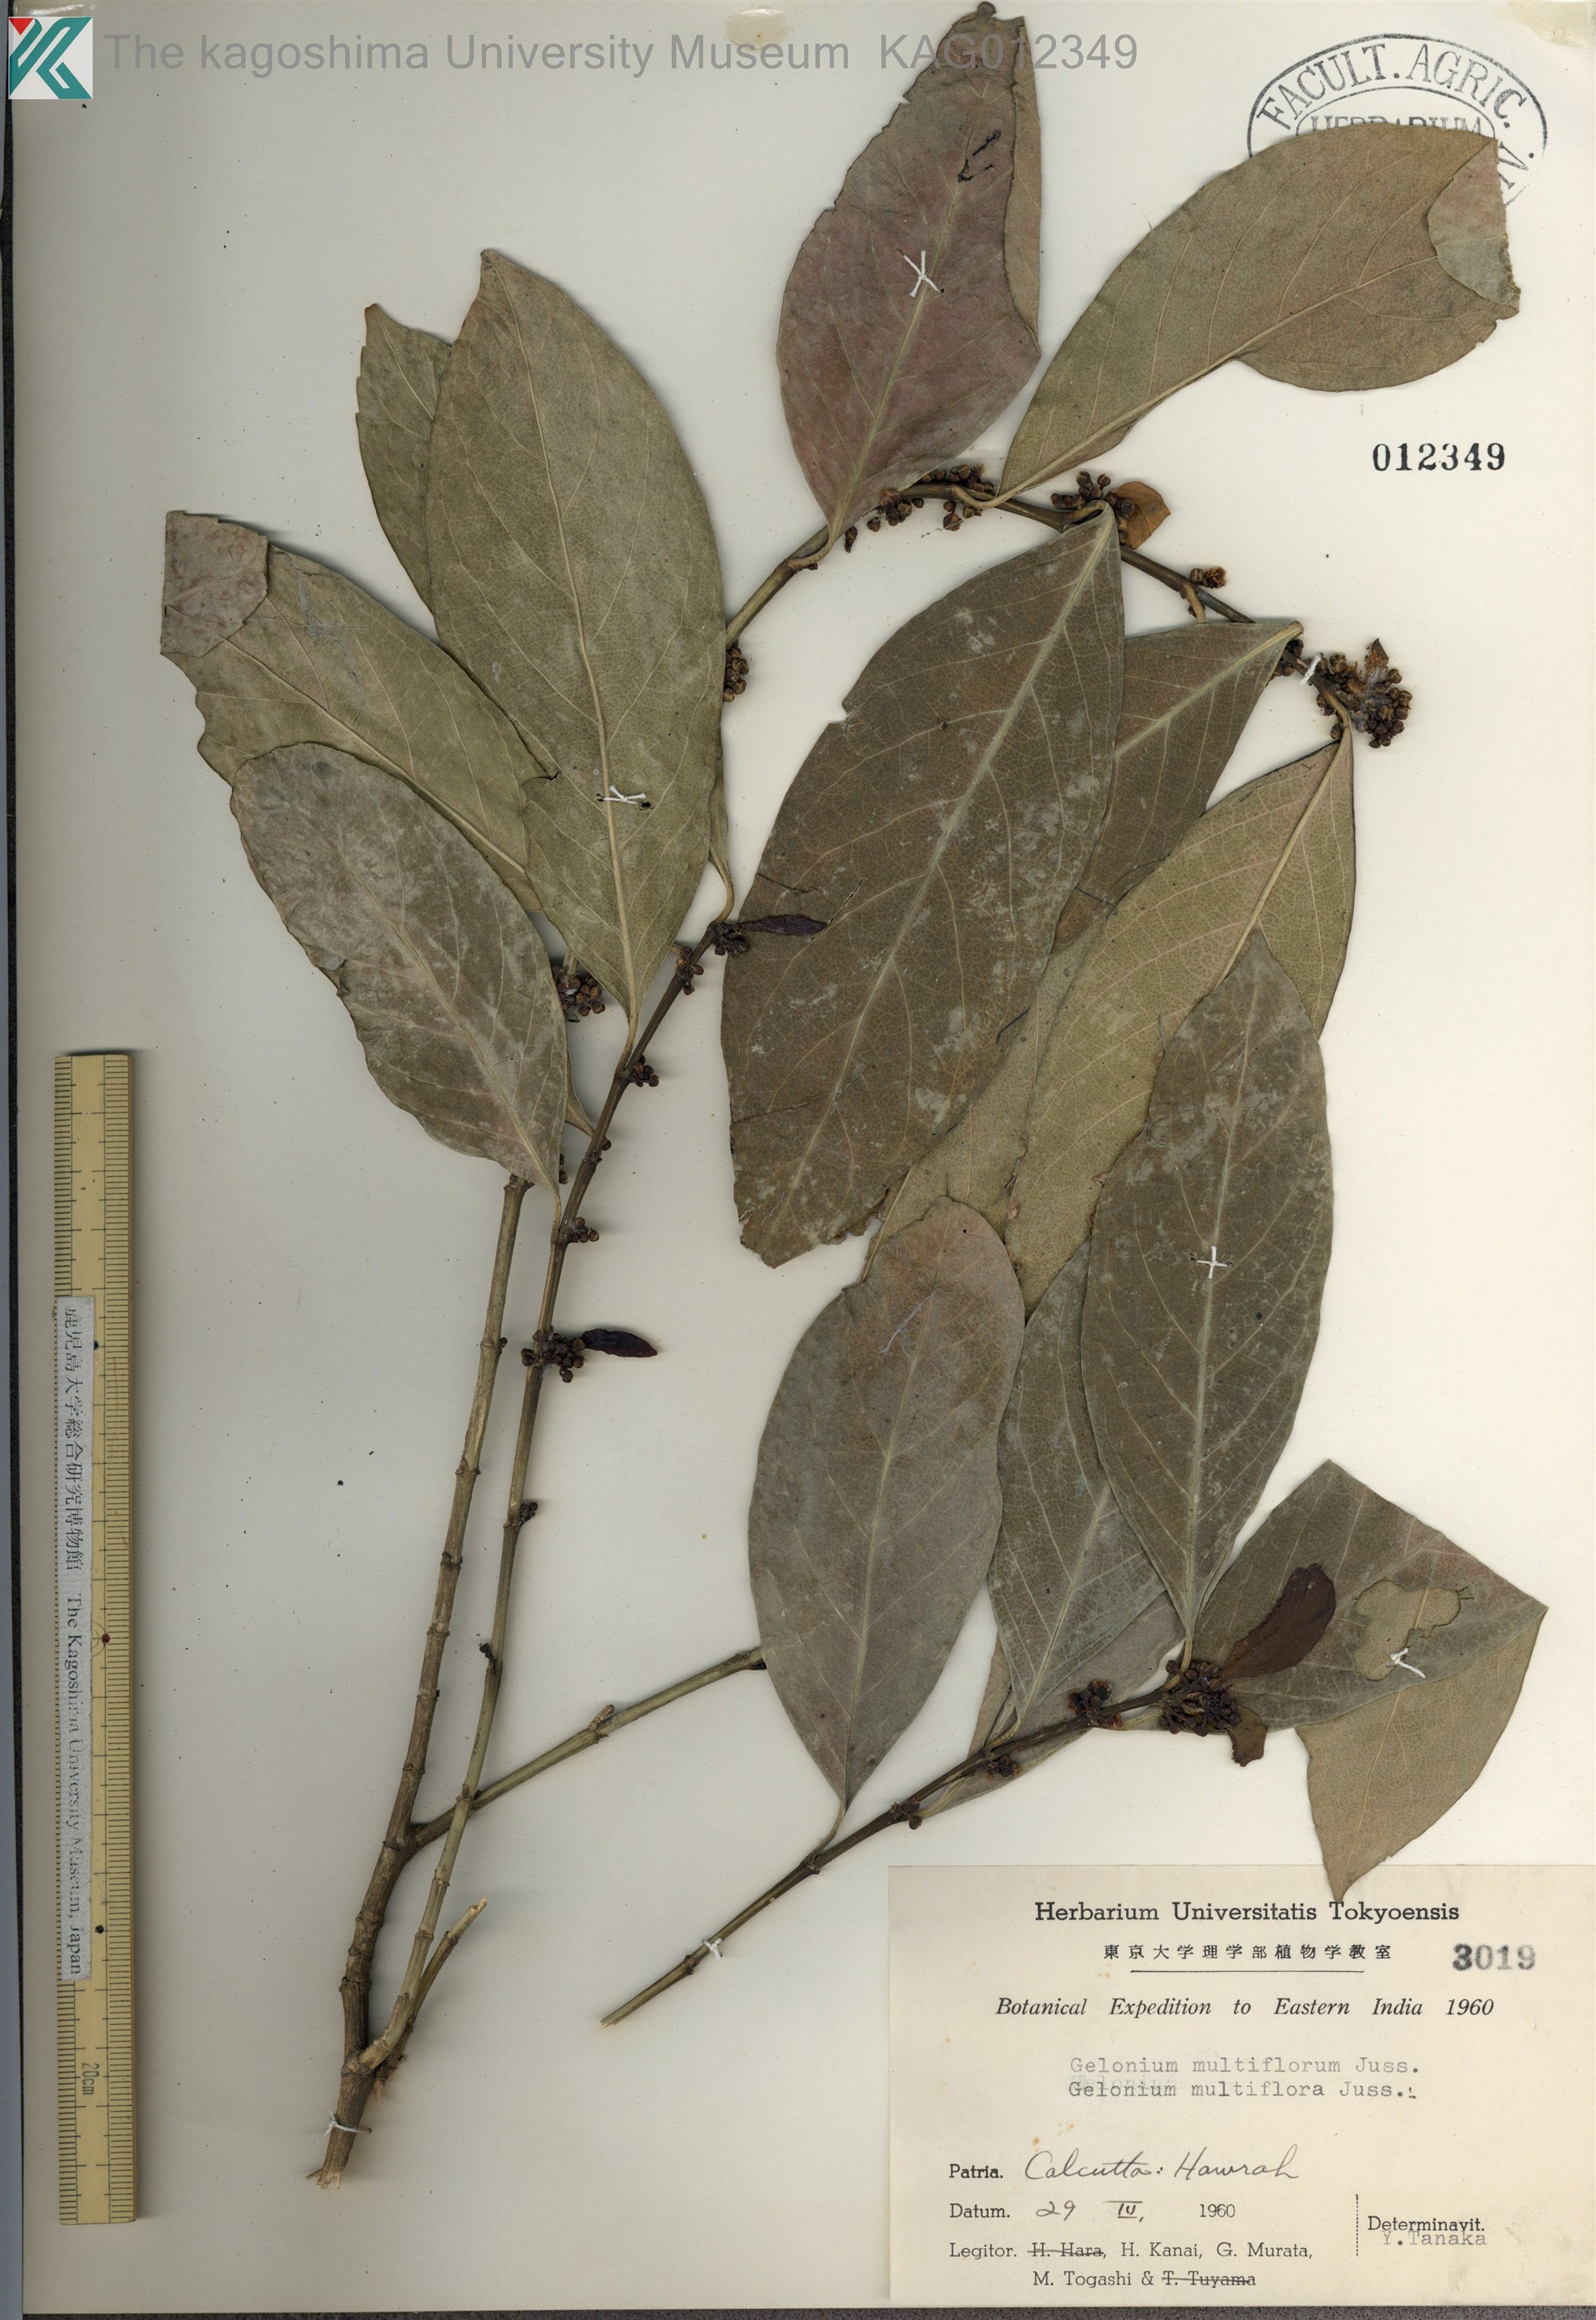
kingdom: Plantae
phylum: Tracheophyta
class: Magnoliopsida
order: Malpighiales
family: Euphorbiaceae
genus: Suregada
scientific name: Suregada multiflora
